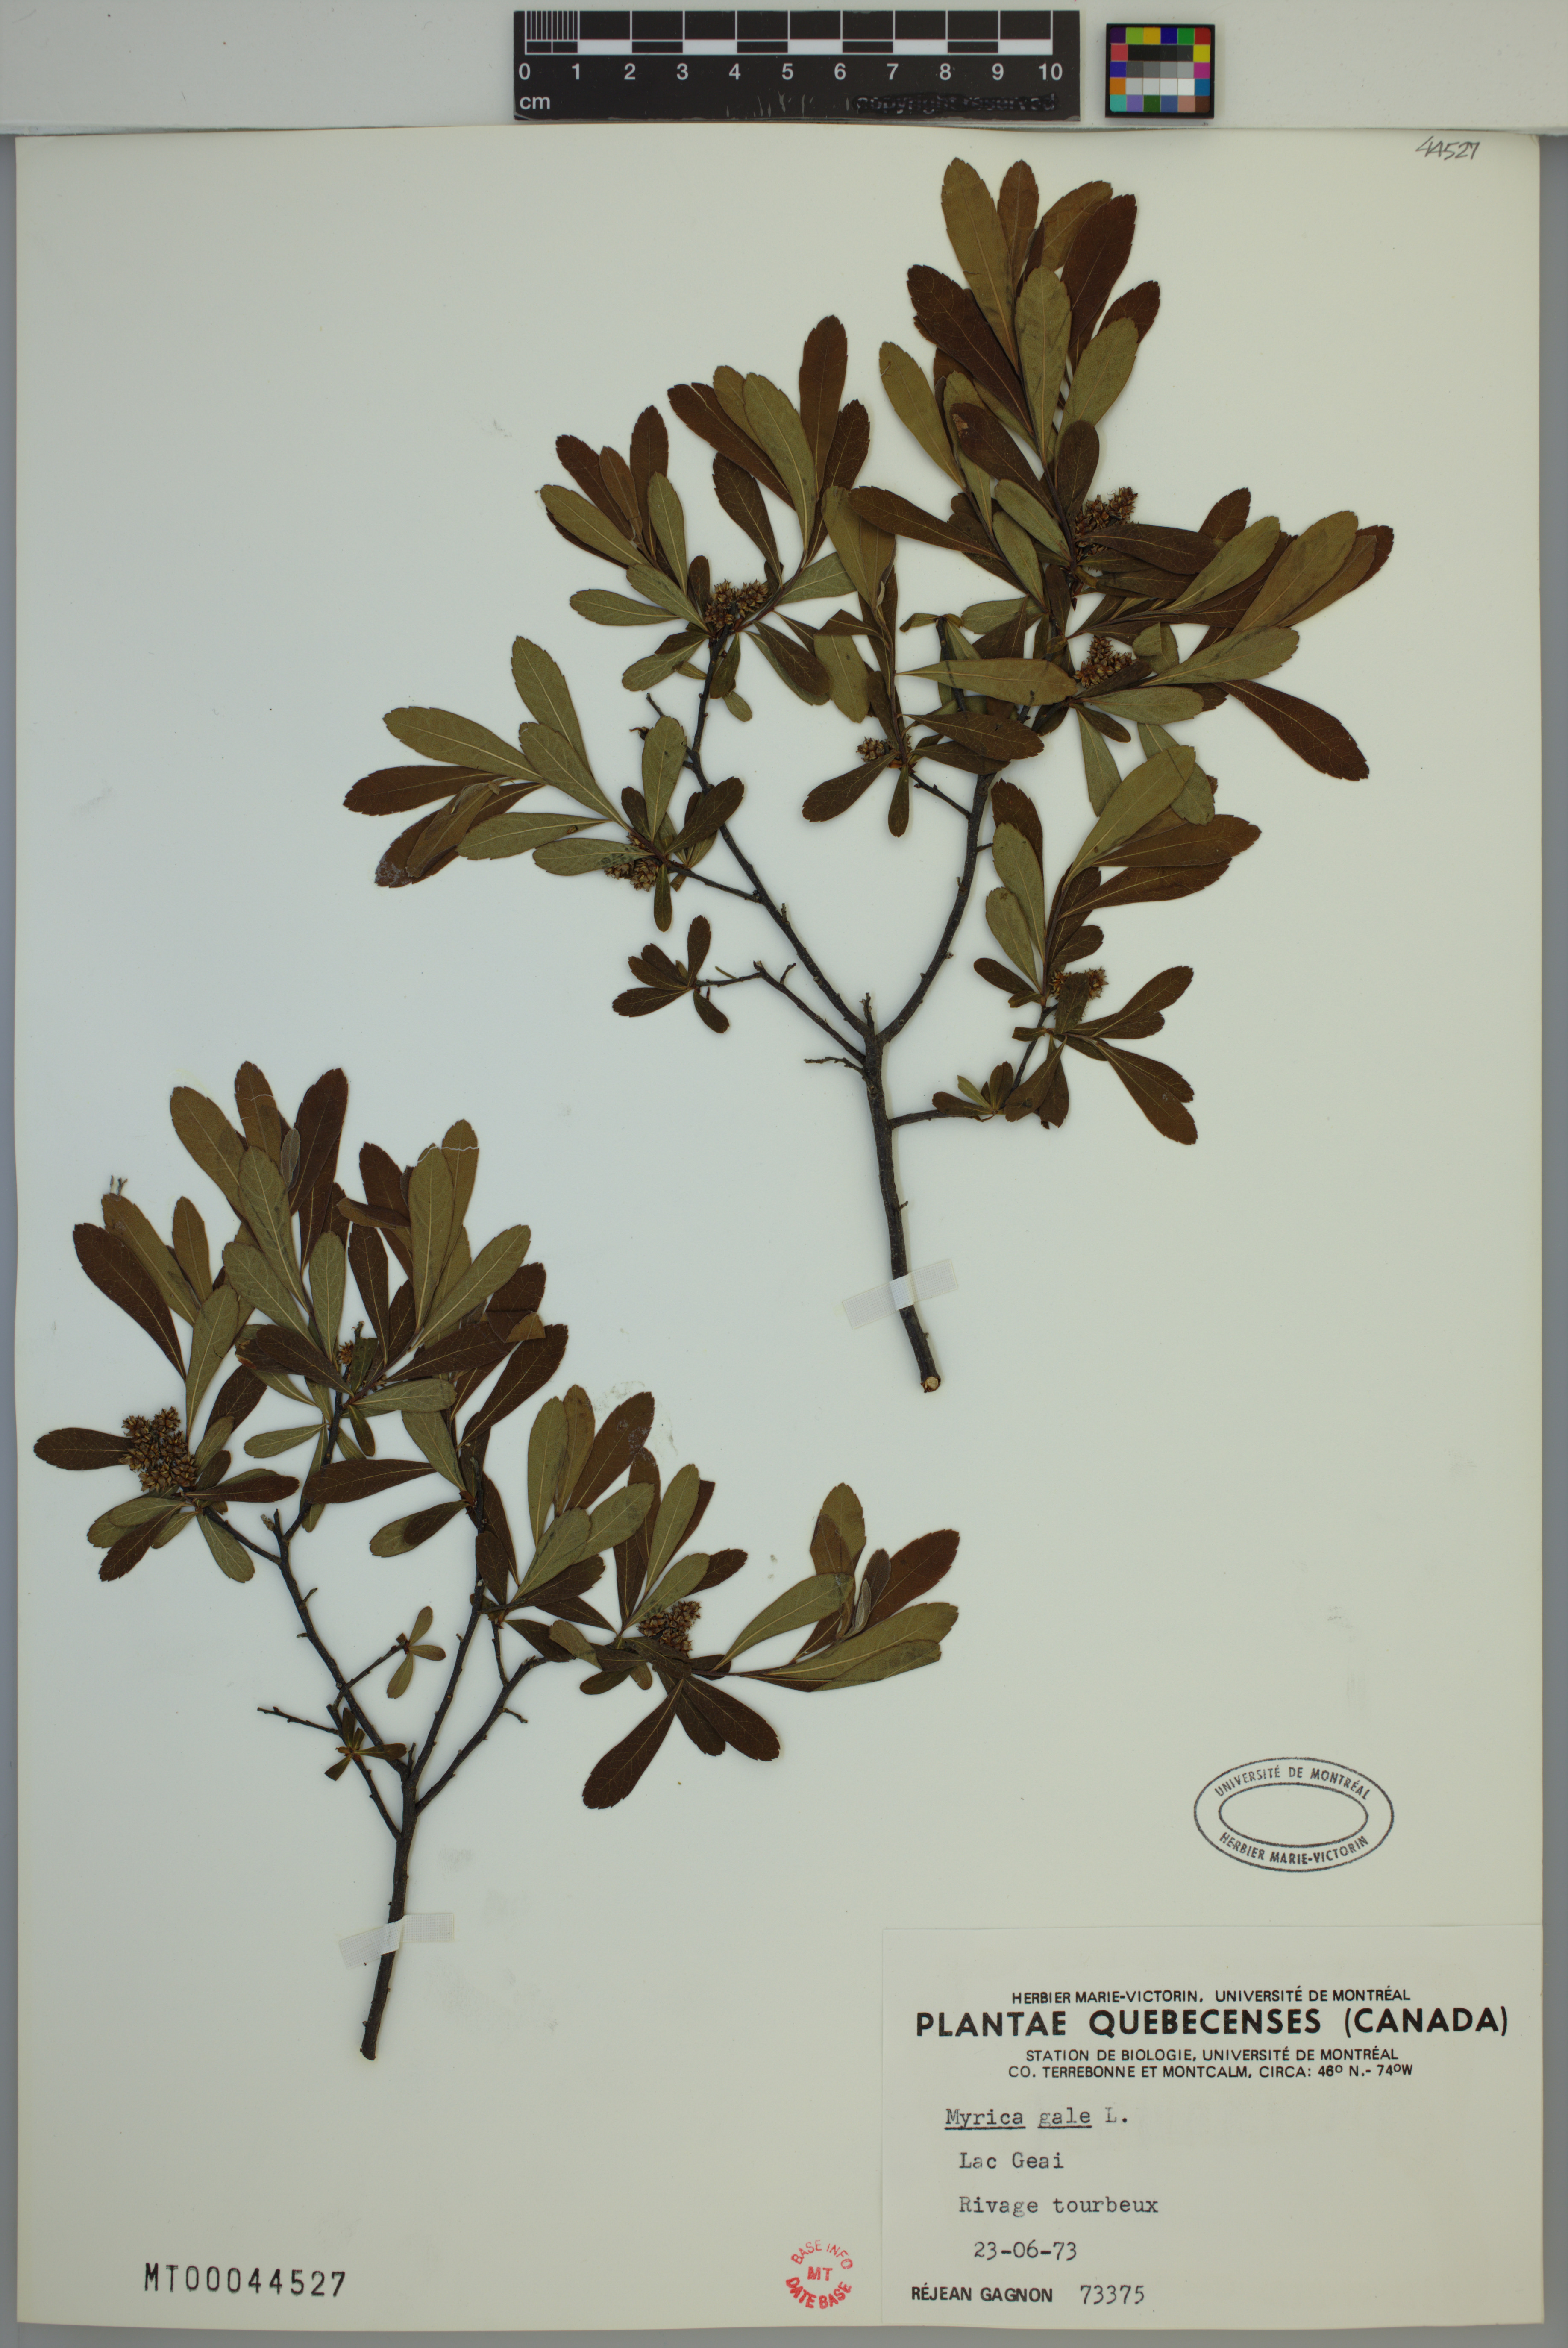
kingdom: Plantae
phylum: Tracheophyta
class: Magnoliopsida
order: Fagales
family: Myricaceae
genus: Myrica
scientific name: Myrica gale
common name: Sweet gale
